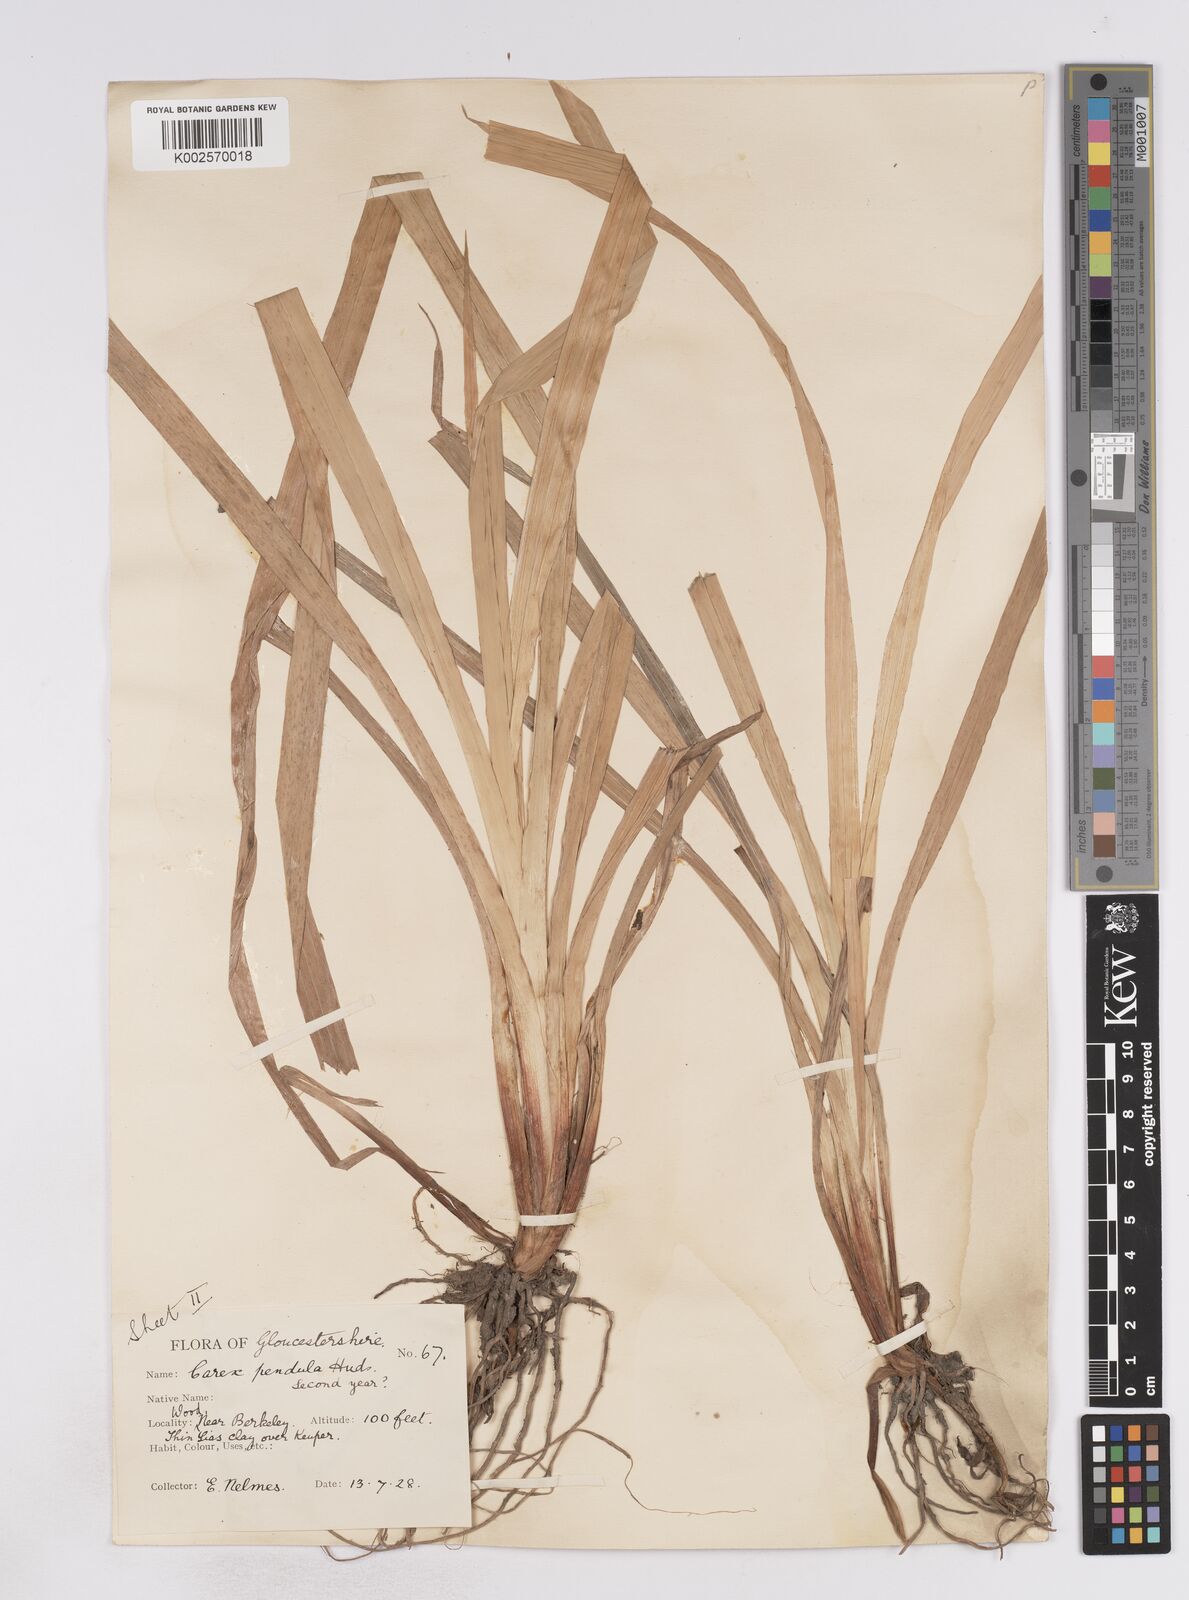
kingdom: Plantae
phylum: Tracheophyta
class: Liliopsida
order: Poales
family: Cyperaceae
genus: Carex
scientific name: Carex pendula
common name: Pendulous sedge
